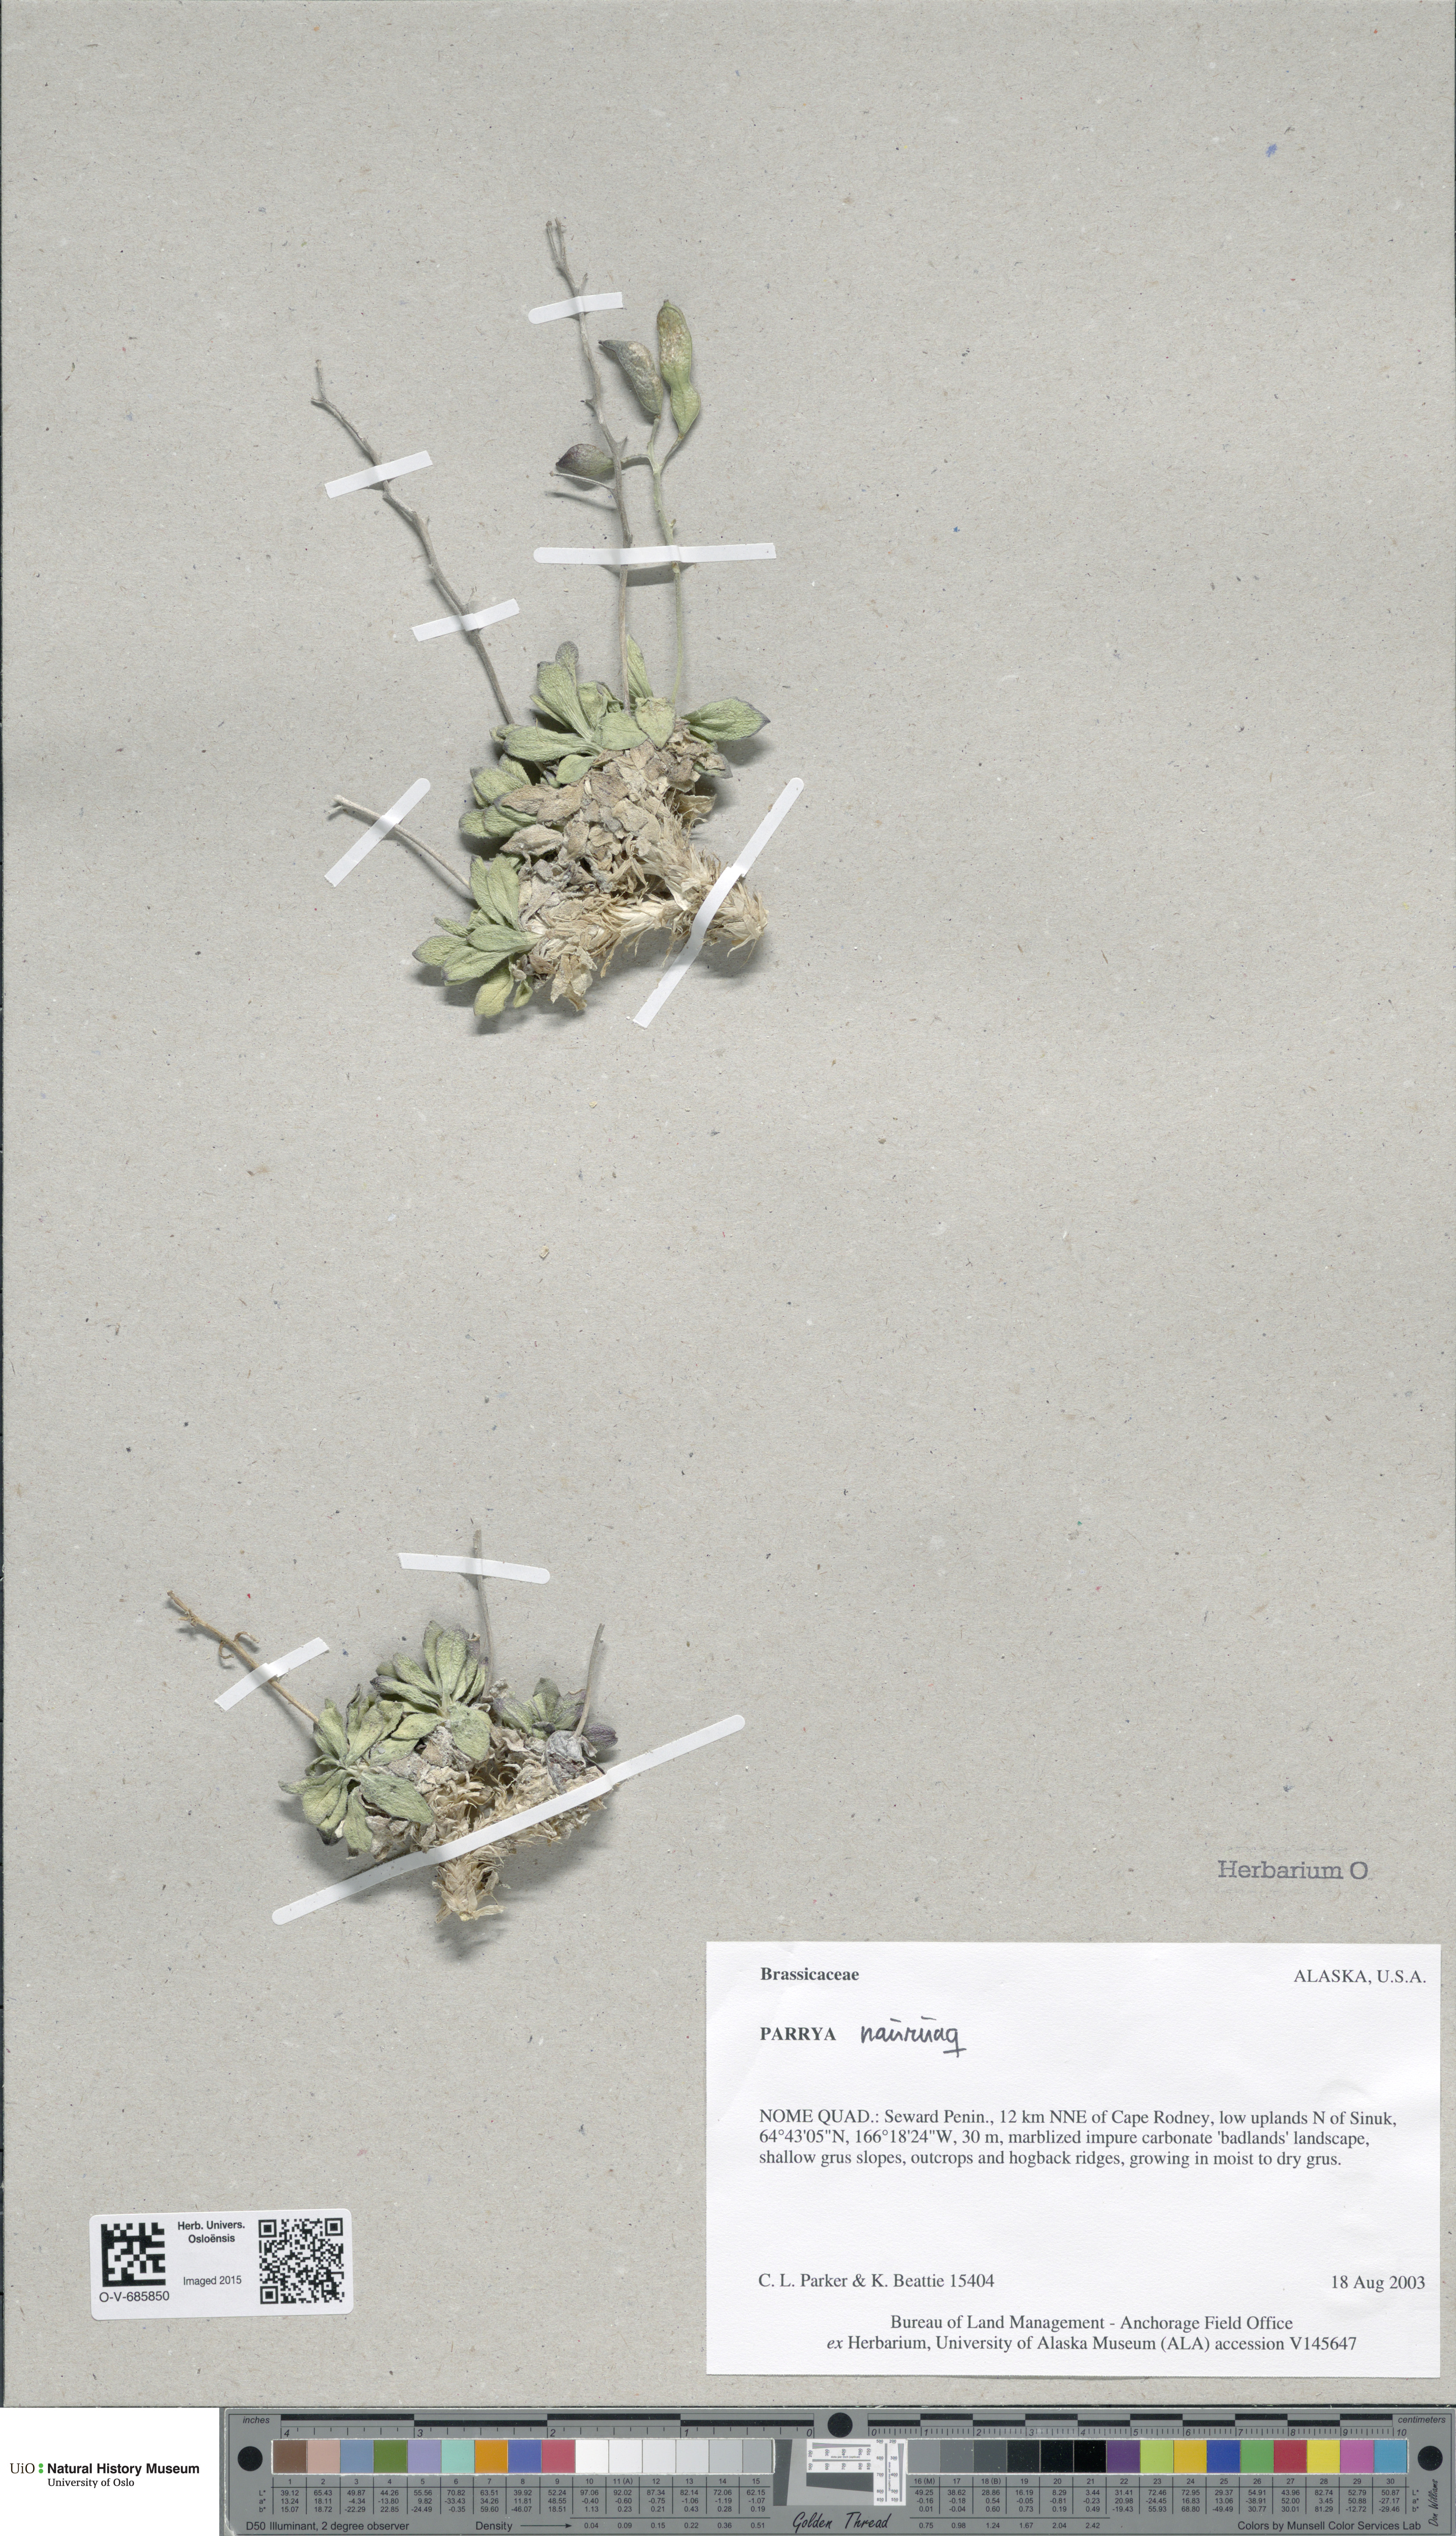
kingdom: Plantae
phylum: Tracheophyta
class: Magnoliopsida
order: Brassicales
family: Brassicaceae
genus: Parrya
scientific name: Parrya nauruaq
